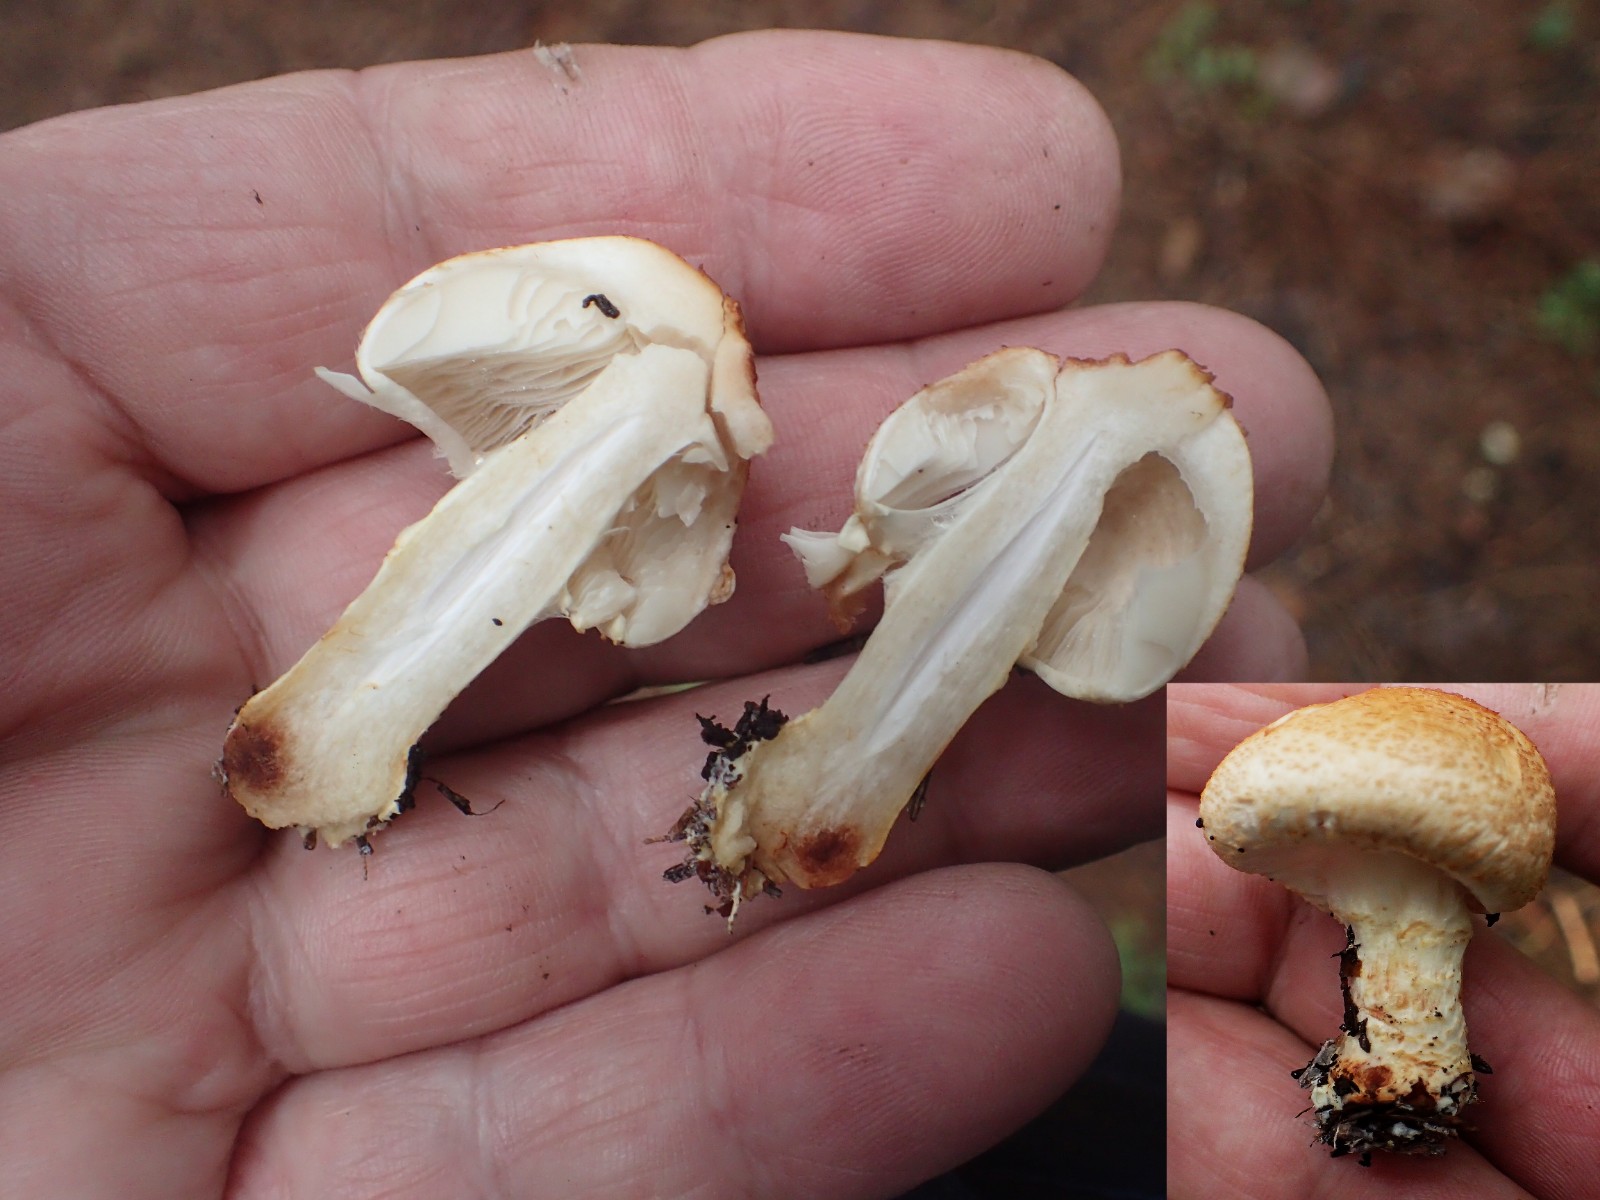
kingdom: Fungi
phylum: Basidiomycota
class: Agaricomycetes
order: Agaricales
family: Agaricaceae
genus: Lepiota
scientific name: Lepiota ochraceofulva
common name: sødtduftende parasolhat
